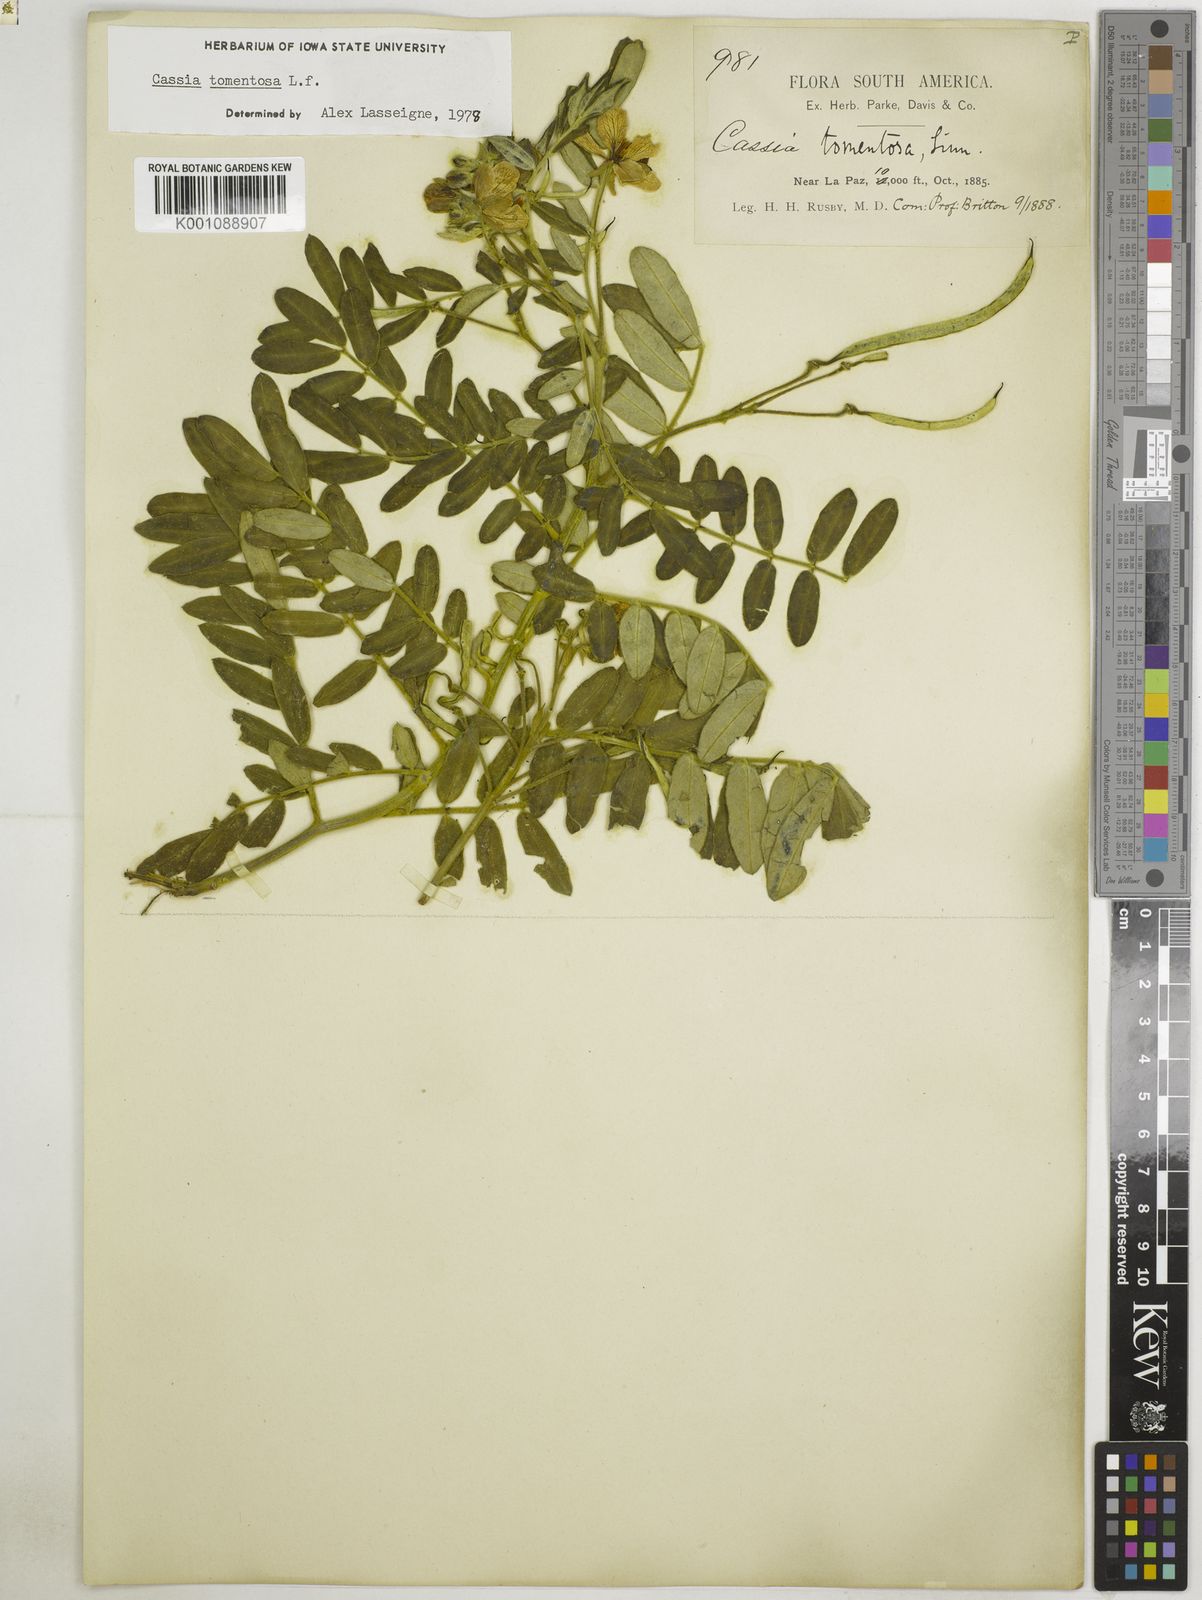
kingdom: Plantae
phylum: Tracheophyta
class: Magnoliopsida
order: Fabales
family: Fabaceae
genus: Senna
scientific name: Senna multiglandulosa
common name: Glandular senna
